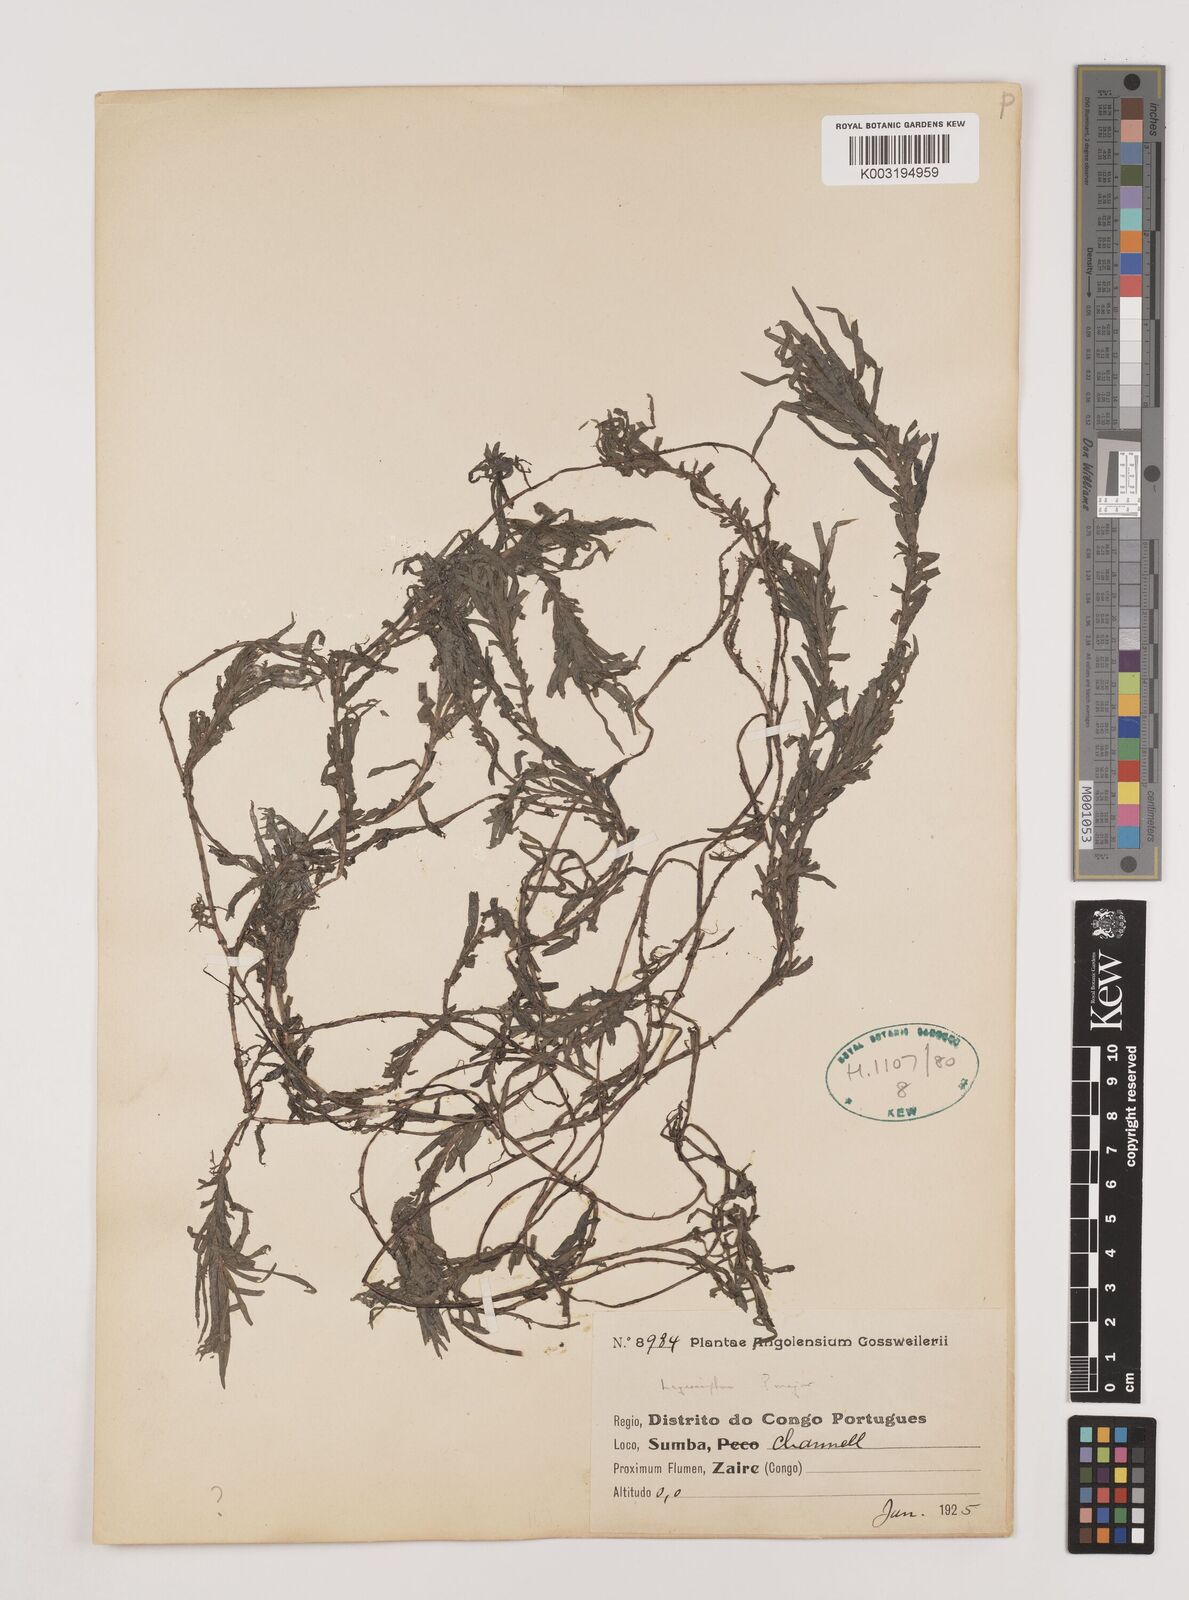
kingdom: Plantae
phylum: Tracheophyta
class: Liliopsida
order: Alismatales
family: Hydrocharitaceae
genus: Lagarosiphon
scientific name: Lagarosiphon major
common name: Curly waterweed
